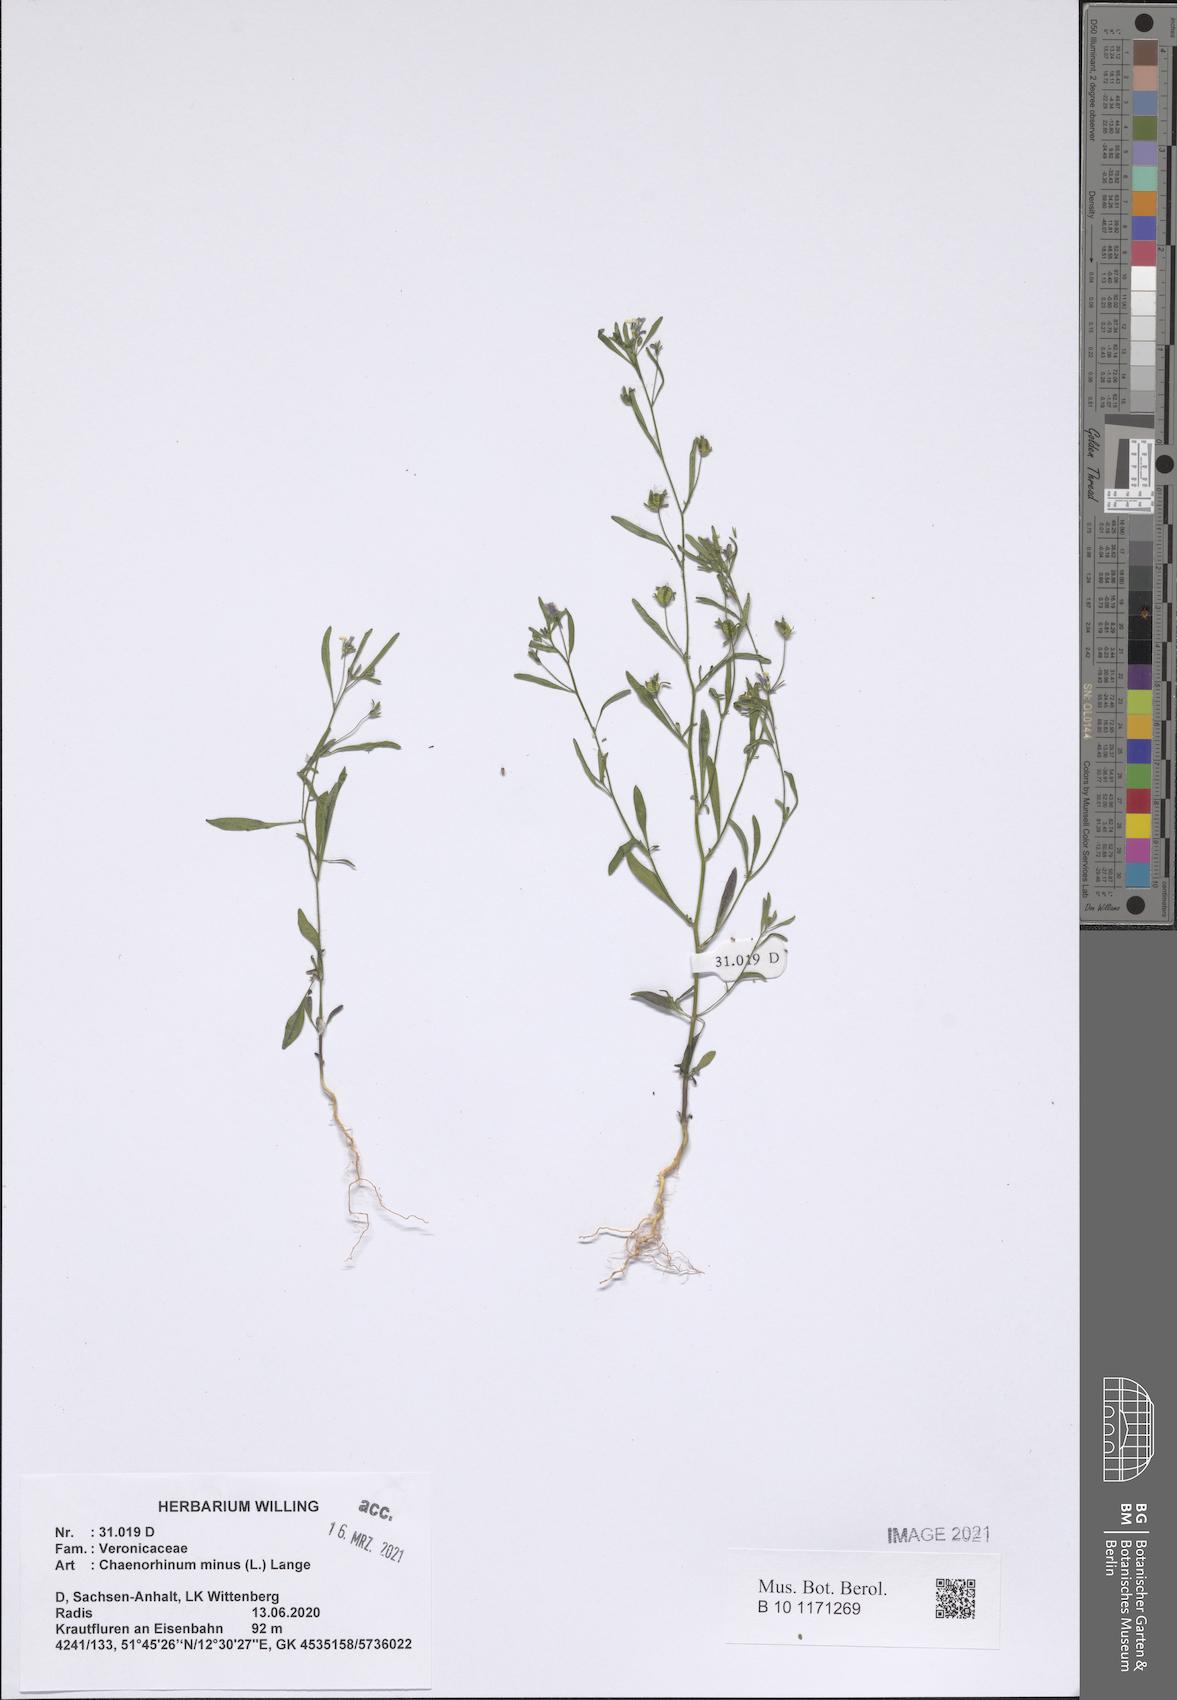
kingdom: Plantae
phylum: Tracheophyta
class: Magnoliopsida
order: Lamiales
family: Plantaginaceae
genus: Chaenorhinum
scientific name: Chaenorhinum minus
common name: Dwarf snapdragon
